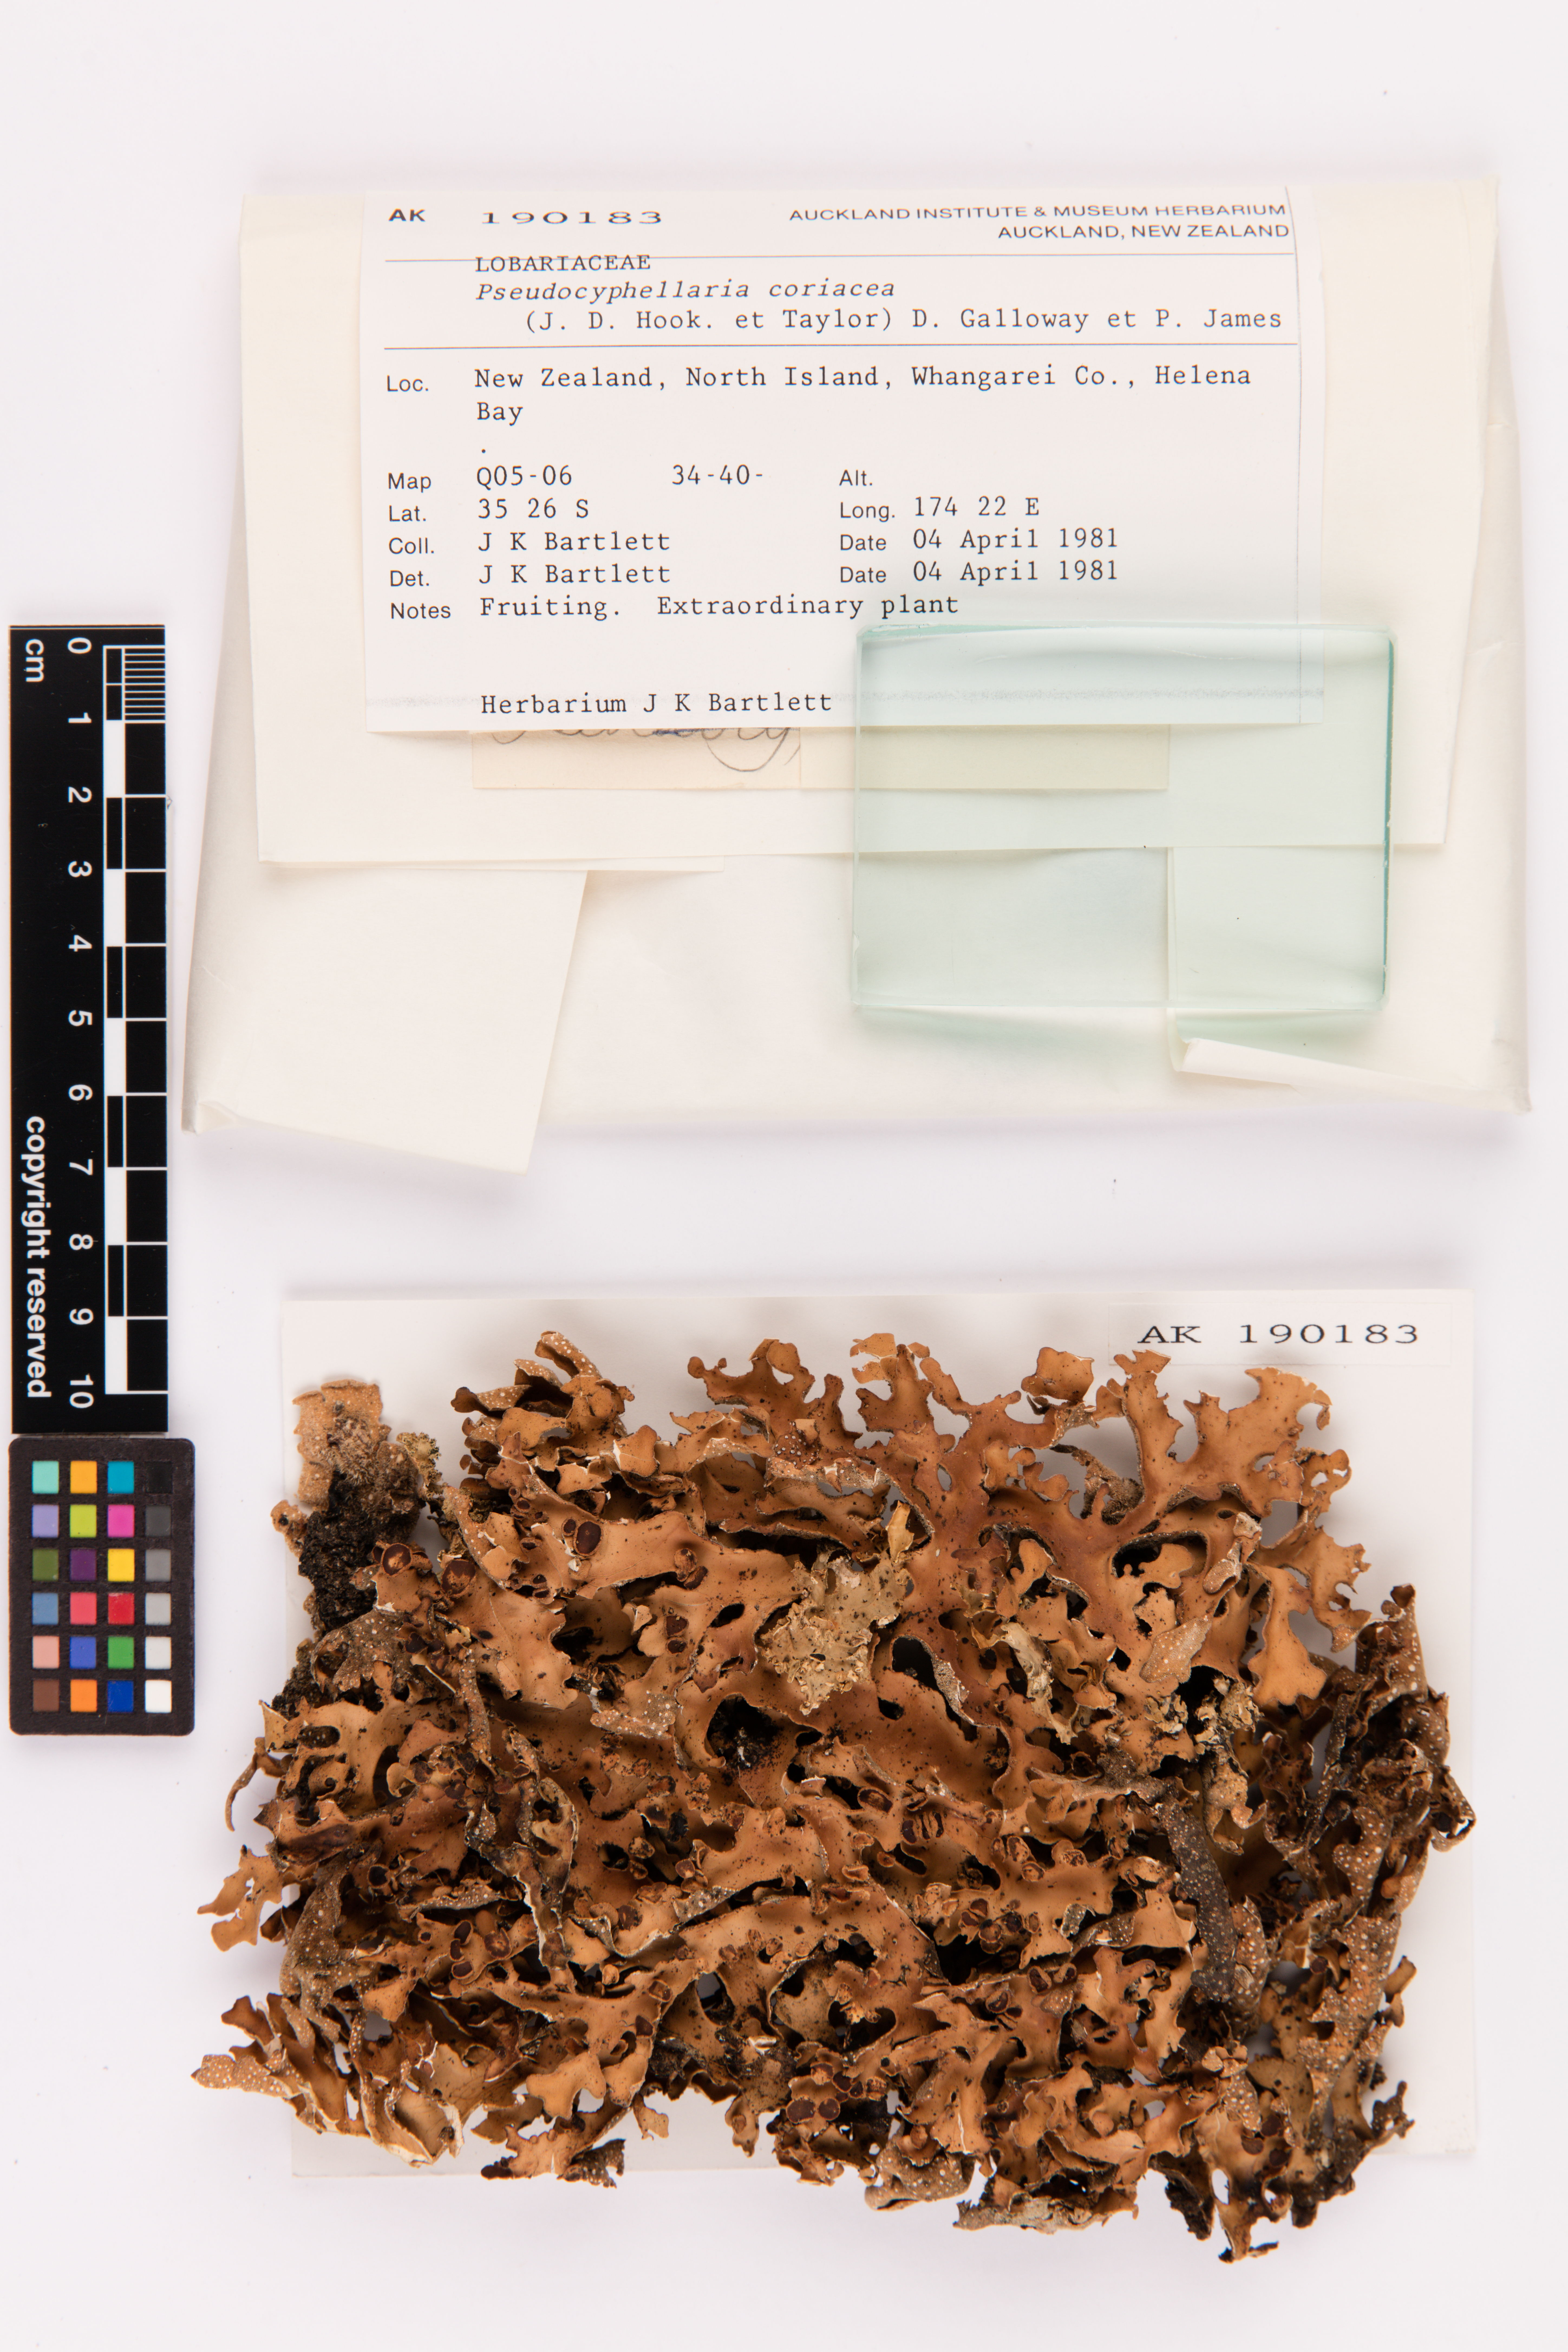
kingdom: Fungi
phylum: Ascomycota
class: Lecanoromycetes
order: Peltigerales
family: Lobariaceae
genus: Pseudocyphellaria
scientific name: Pseudocyphellaria coriacea
